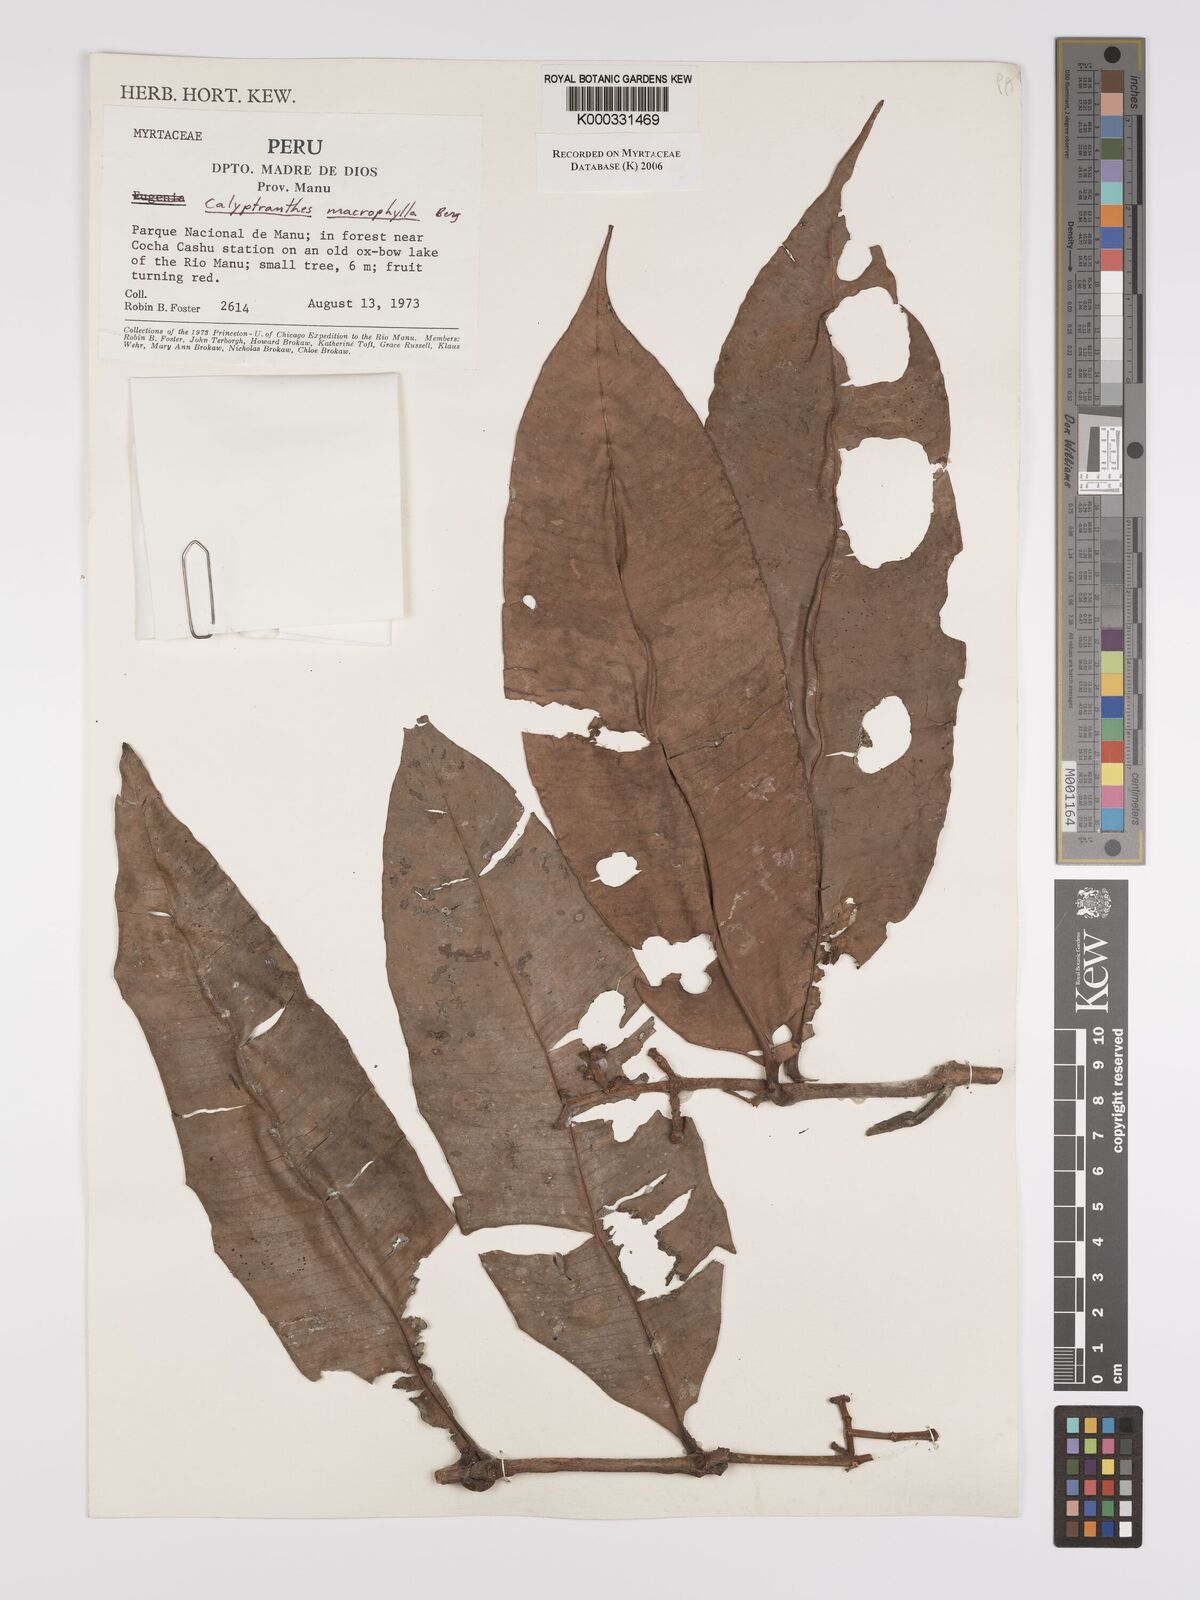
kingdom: Plantae
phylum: Tracheophyta
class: Magnoliopsida
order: Myrtales
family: Myrtaceae
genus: Myrcia
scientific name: Myrcia neomacrophylla
